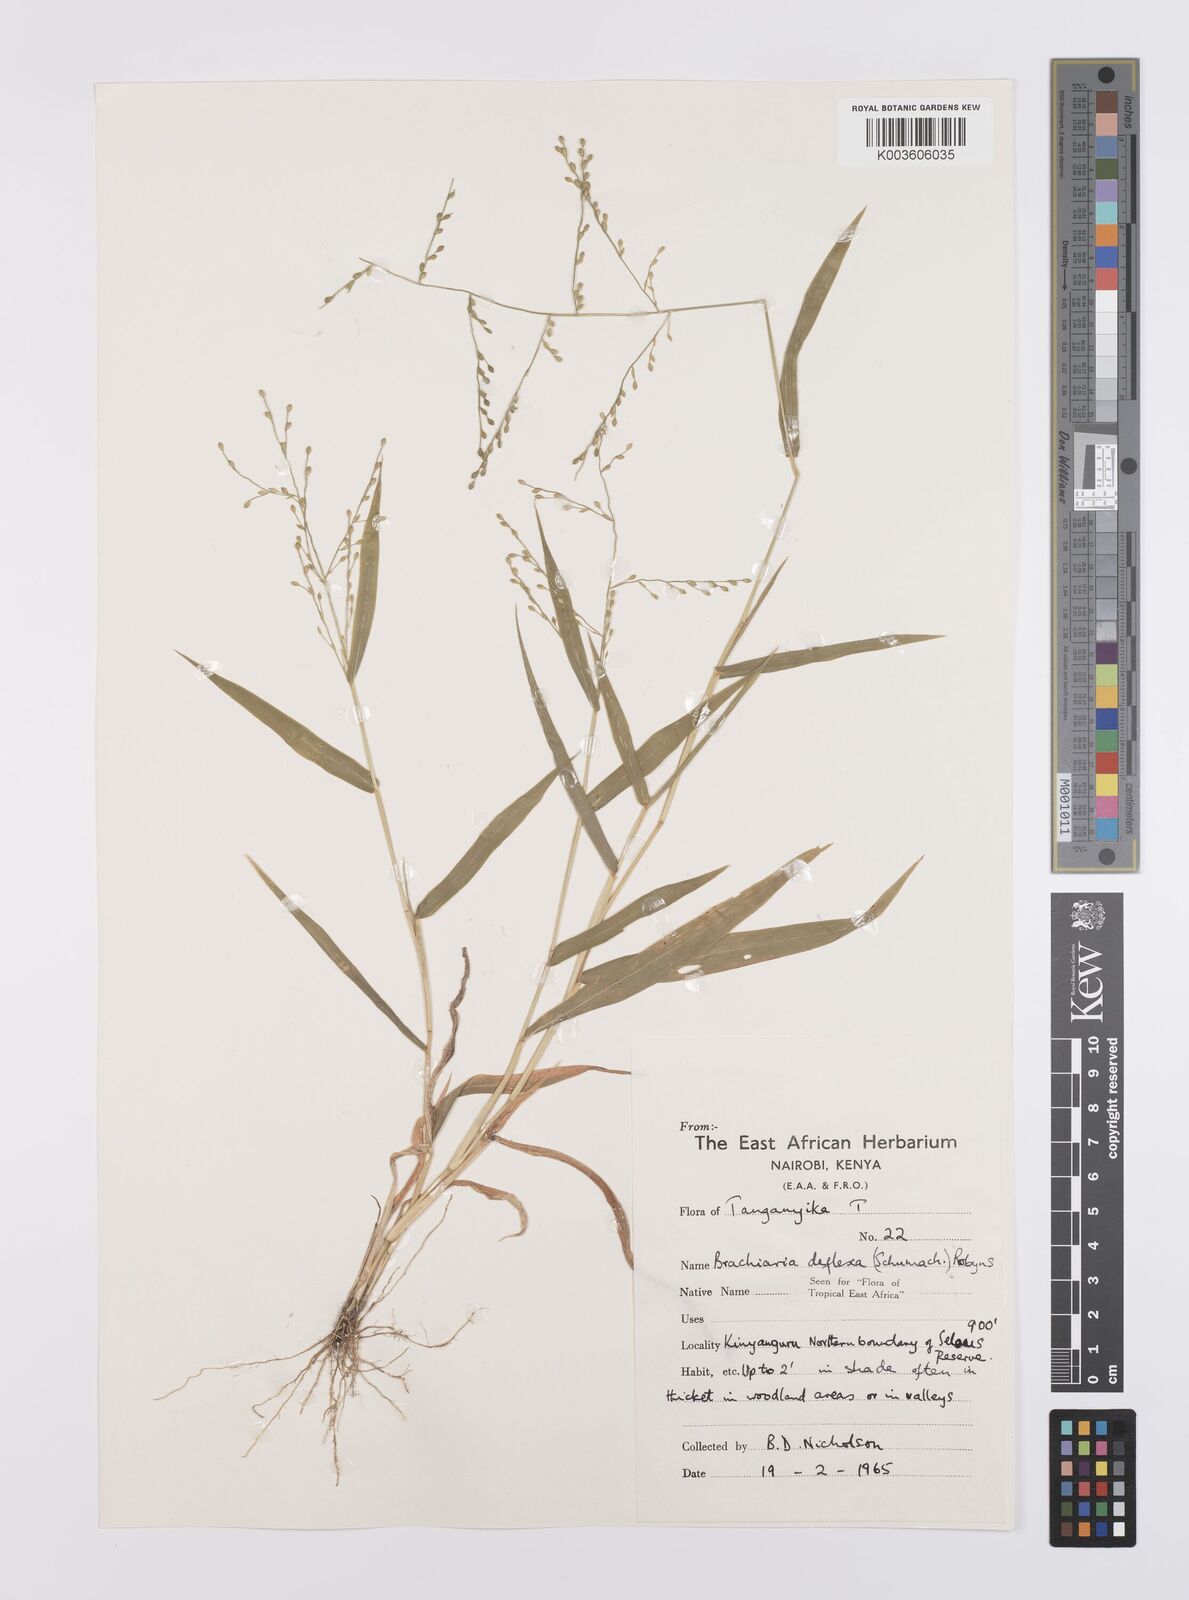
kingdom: Plantae
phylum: Tracheophyta
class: Liliopsida
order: Poales
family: Poaceae
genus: Urochloa
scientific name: Urochloa deflexa
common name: Guinea millet
